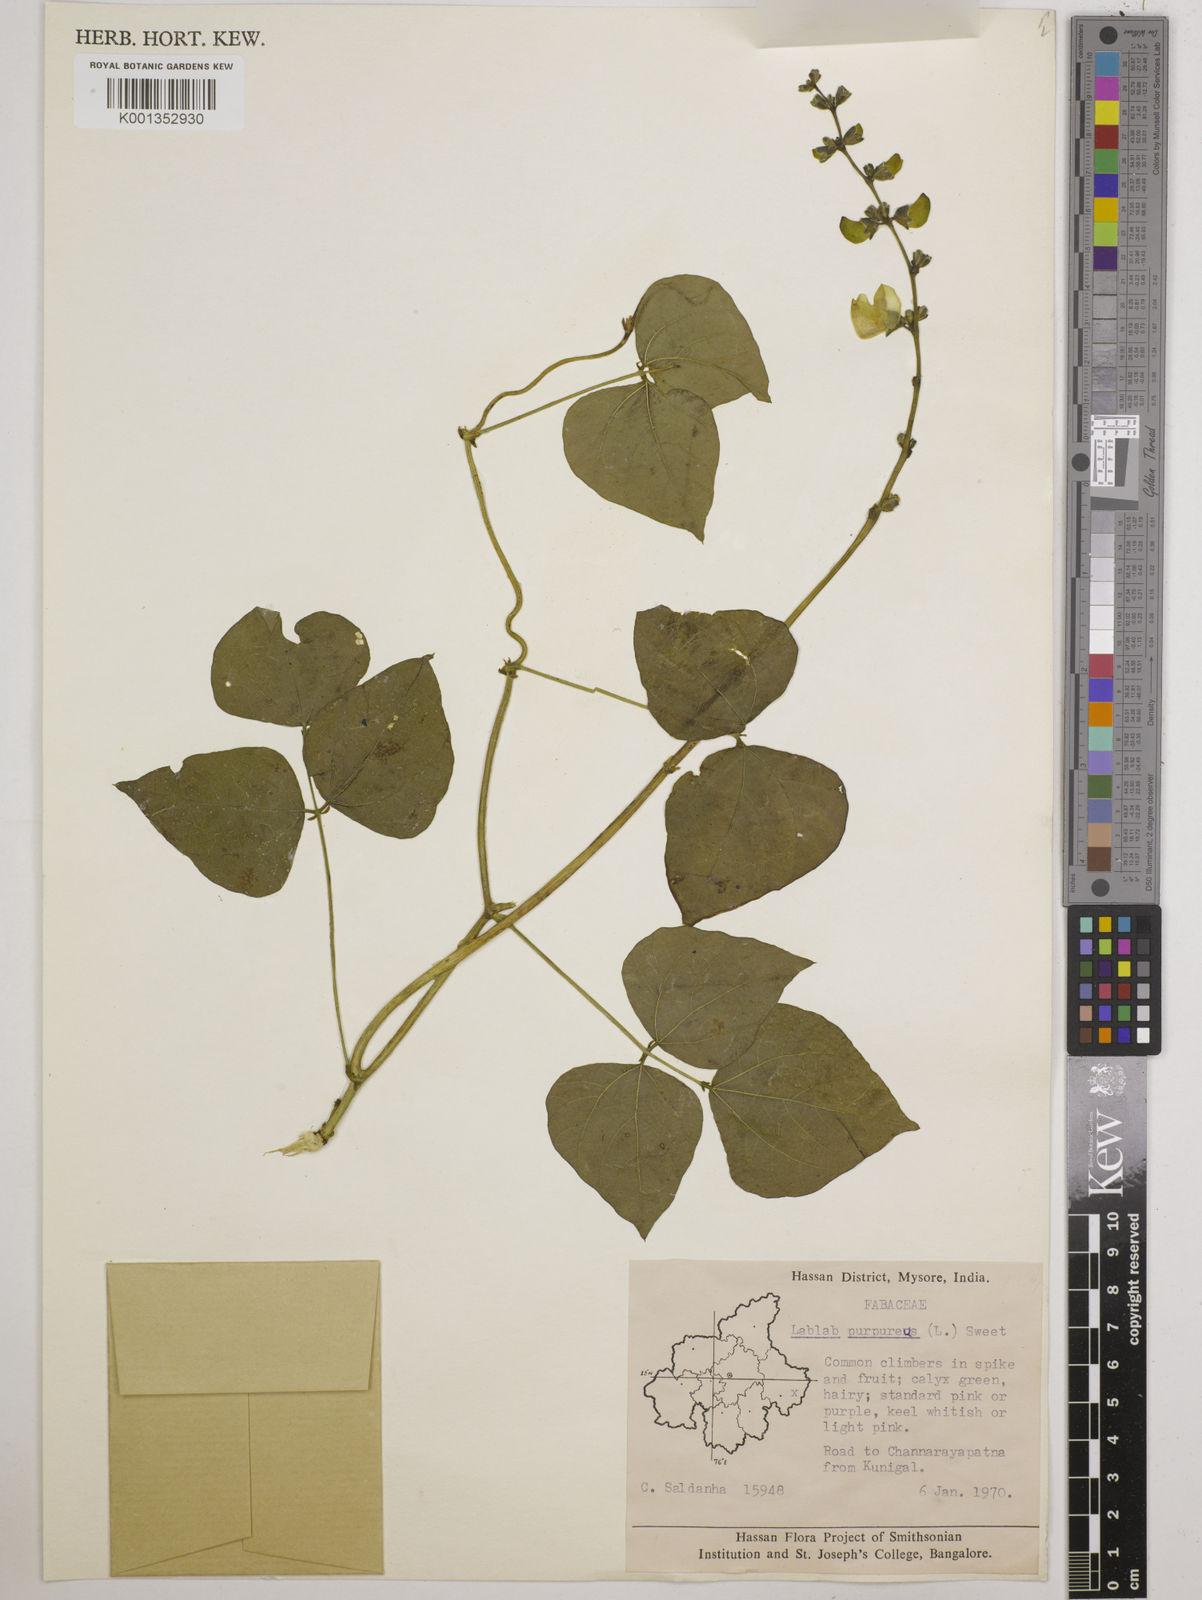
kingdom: Plantae
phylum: Tracheophyta
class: Magnoliopsida
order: Fabales
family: Fabaceae
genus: Lablab
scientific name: Lablab purpureus
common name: Lablab-bean
